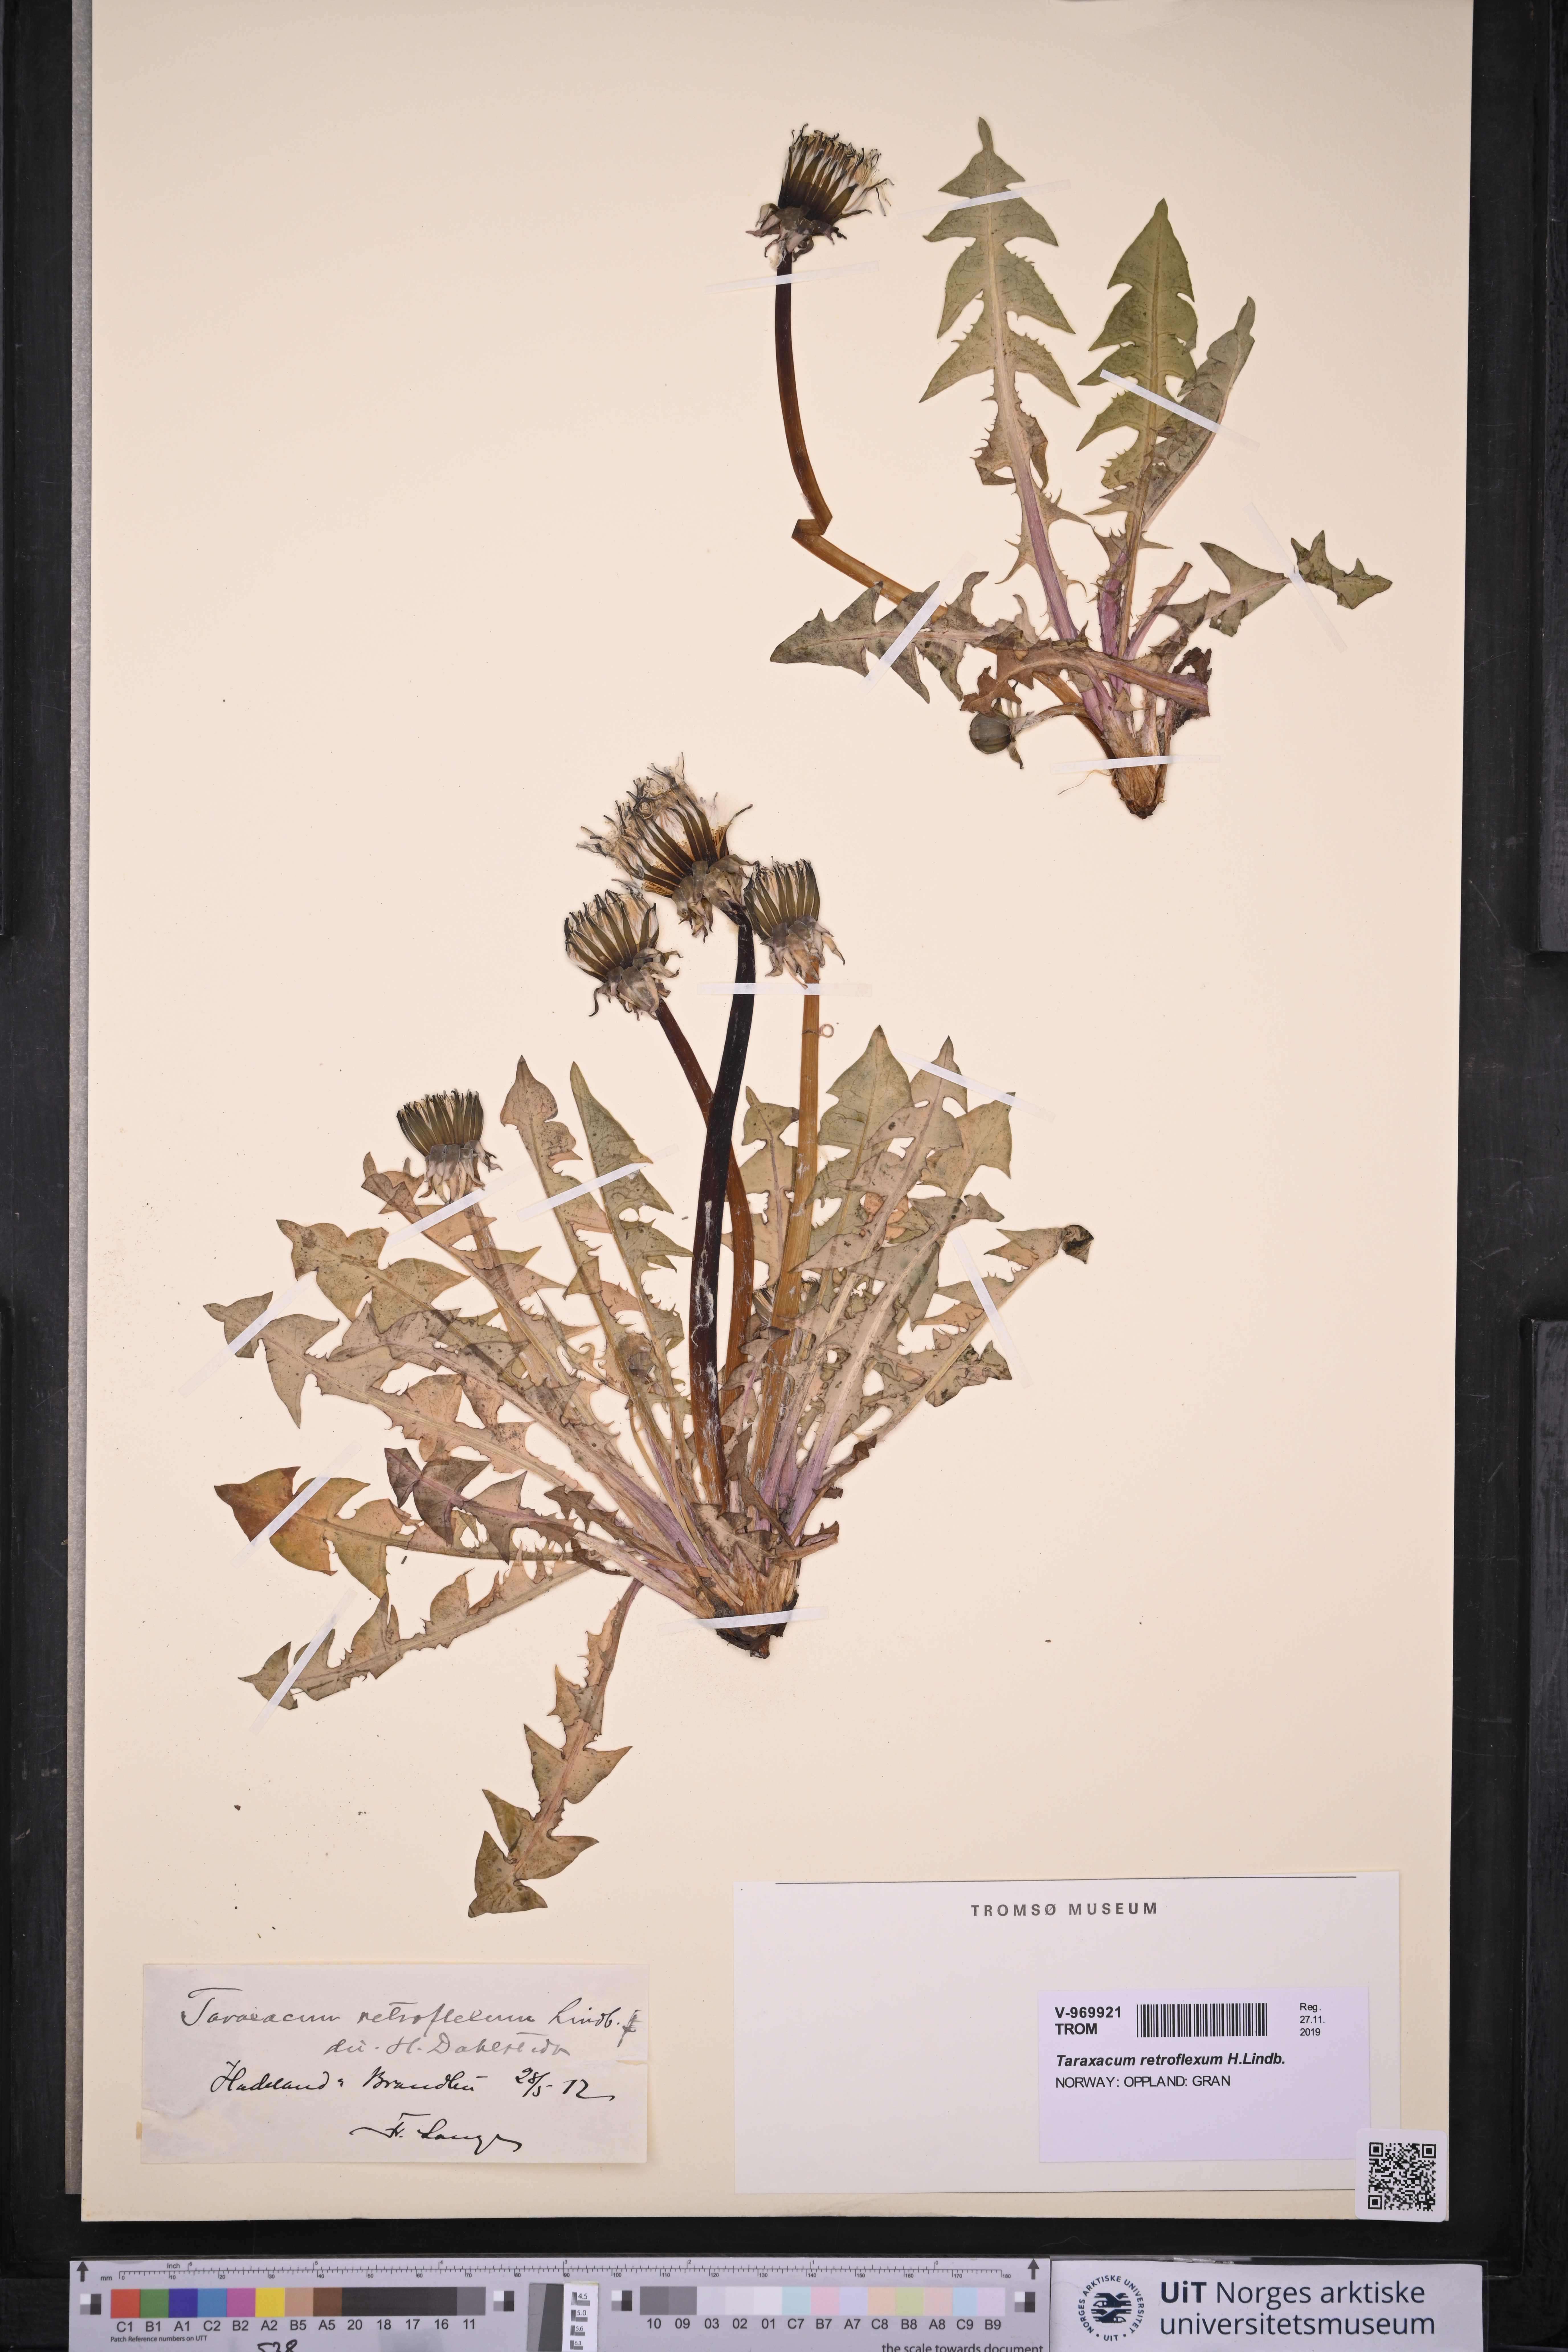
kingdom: Plantae
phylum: Tracheophyta
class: Magnoliopsida
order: Asterales
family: Asteraceae
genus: Taraxacum
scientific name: Taraxacum retroflexum
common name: Reflexed-lobed dandelion
